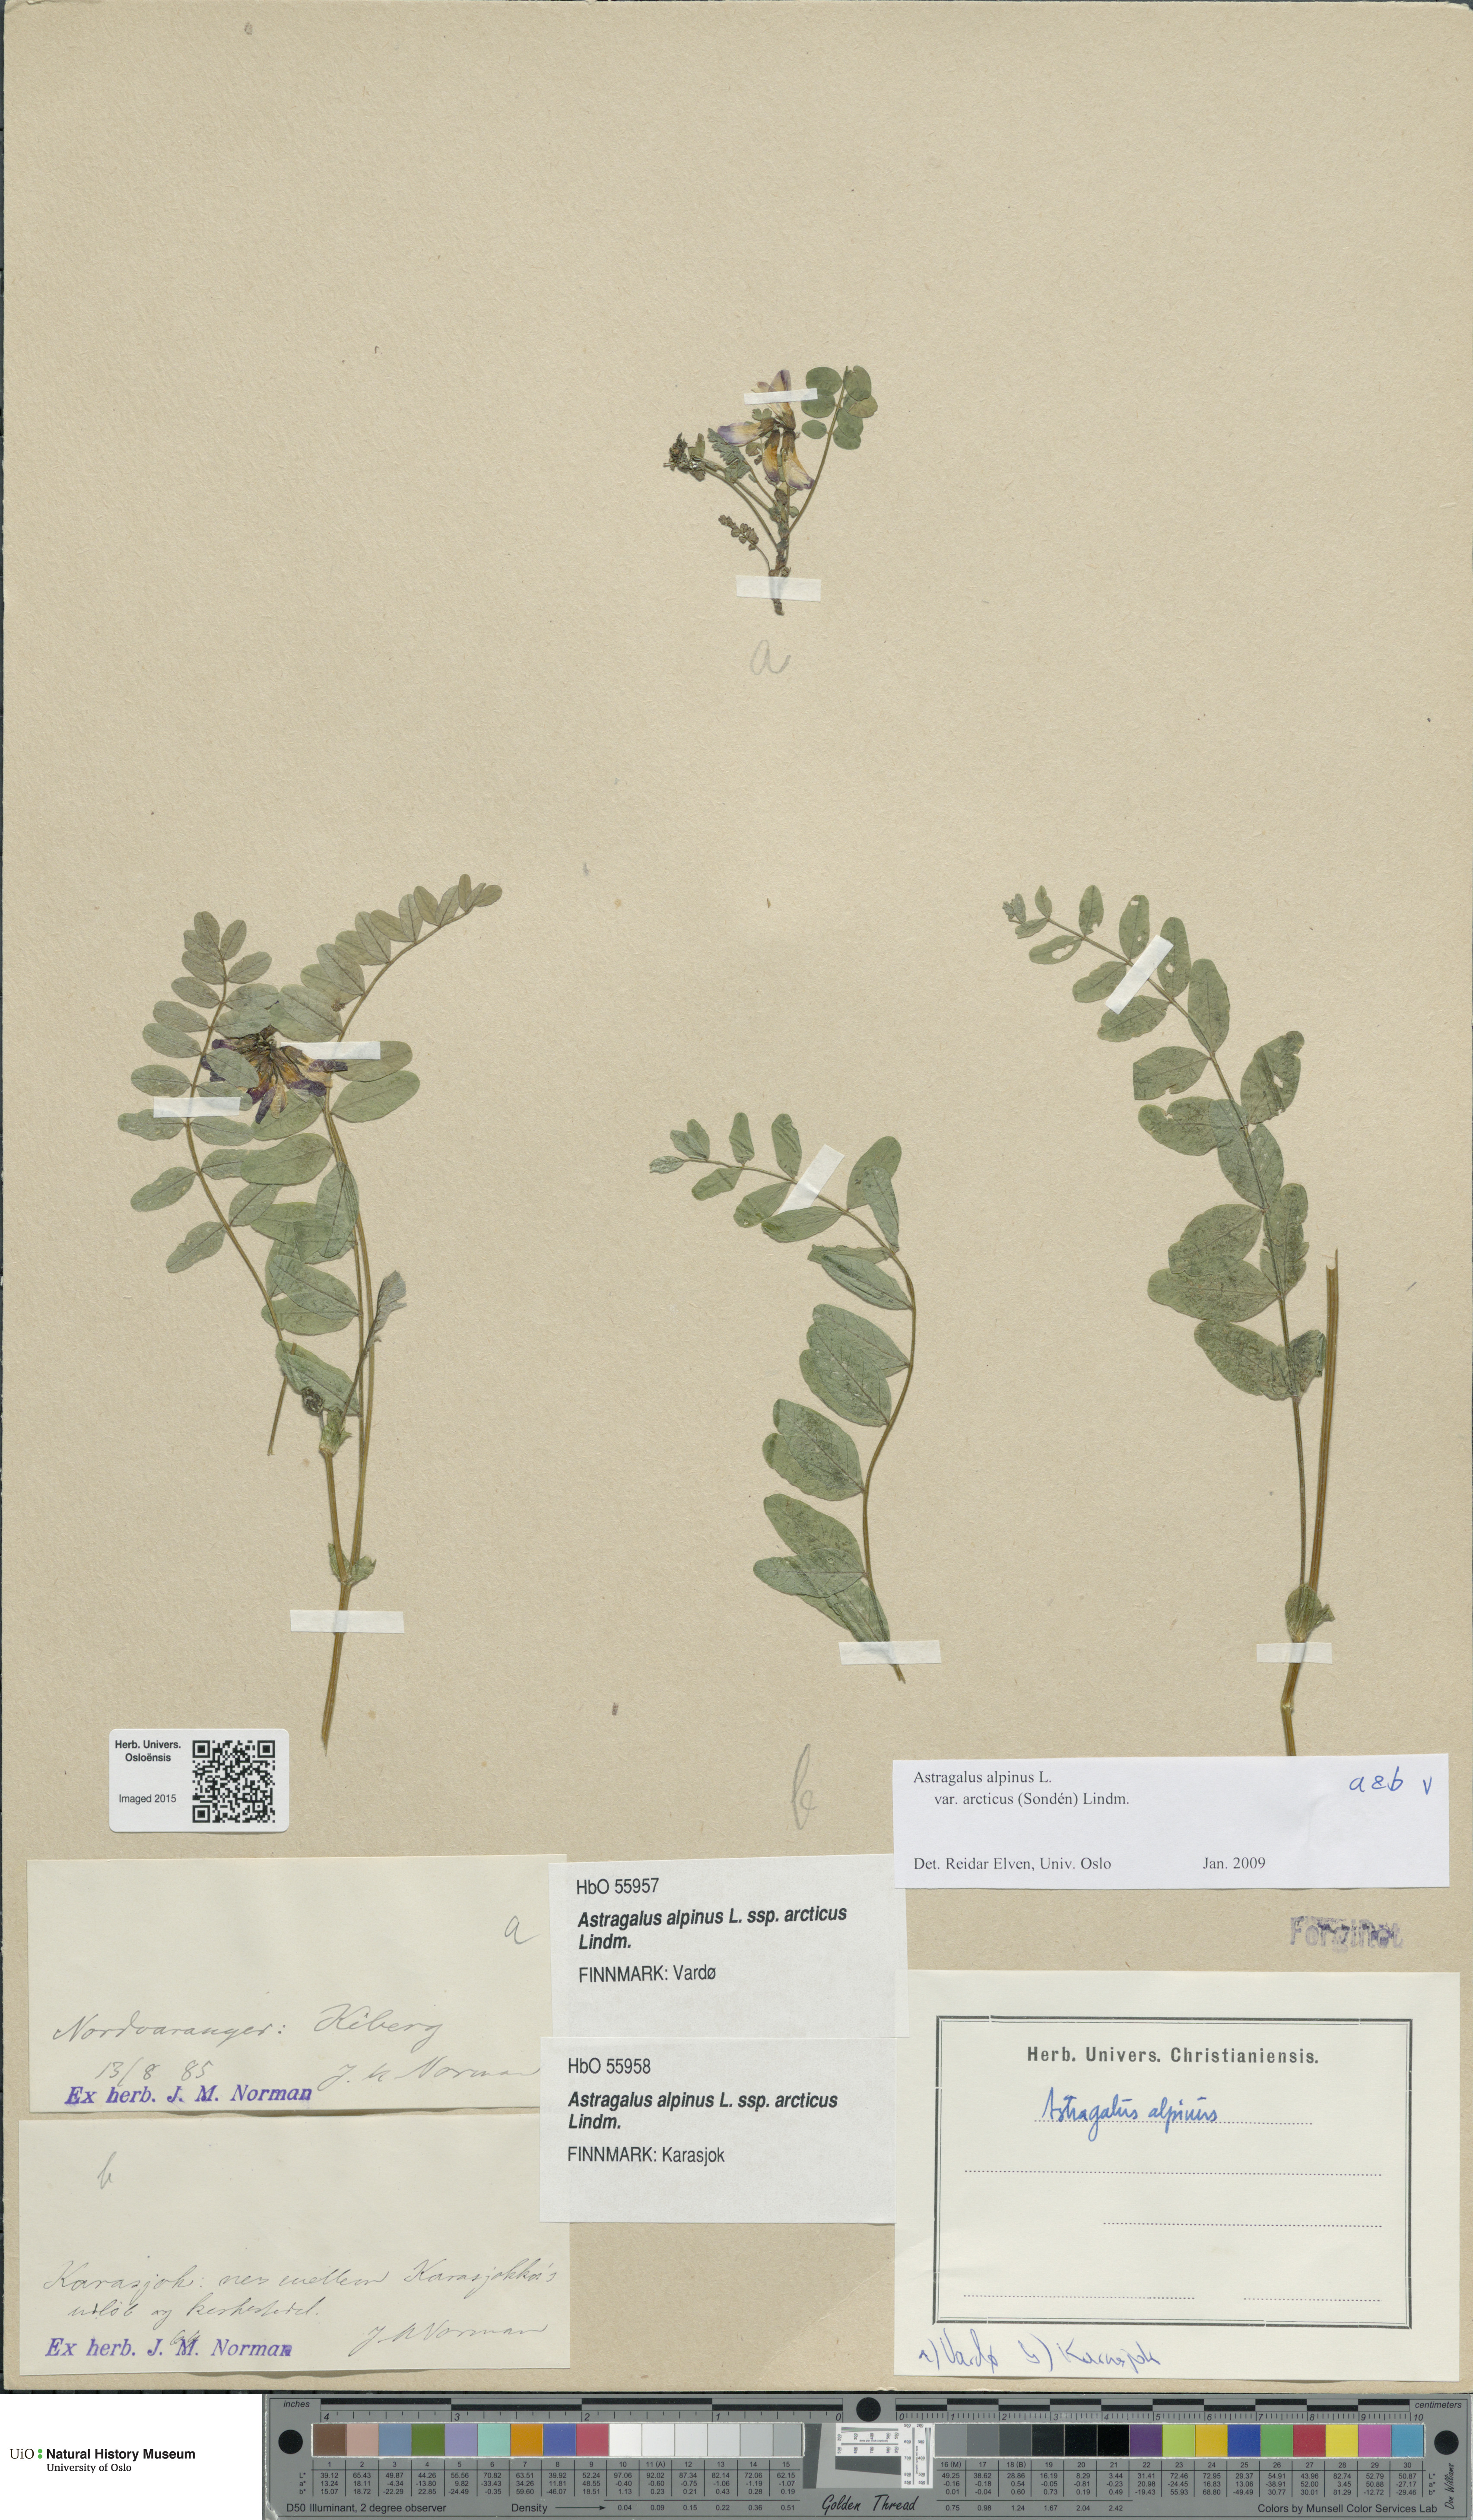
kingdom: Plantae
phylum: Tracheophyta
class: Magnoliopsida
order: Fabales
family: Fabaceae
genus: Astragalus
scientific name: Astragalus norvegicus
